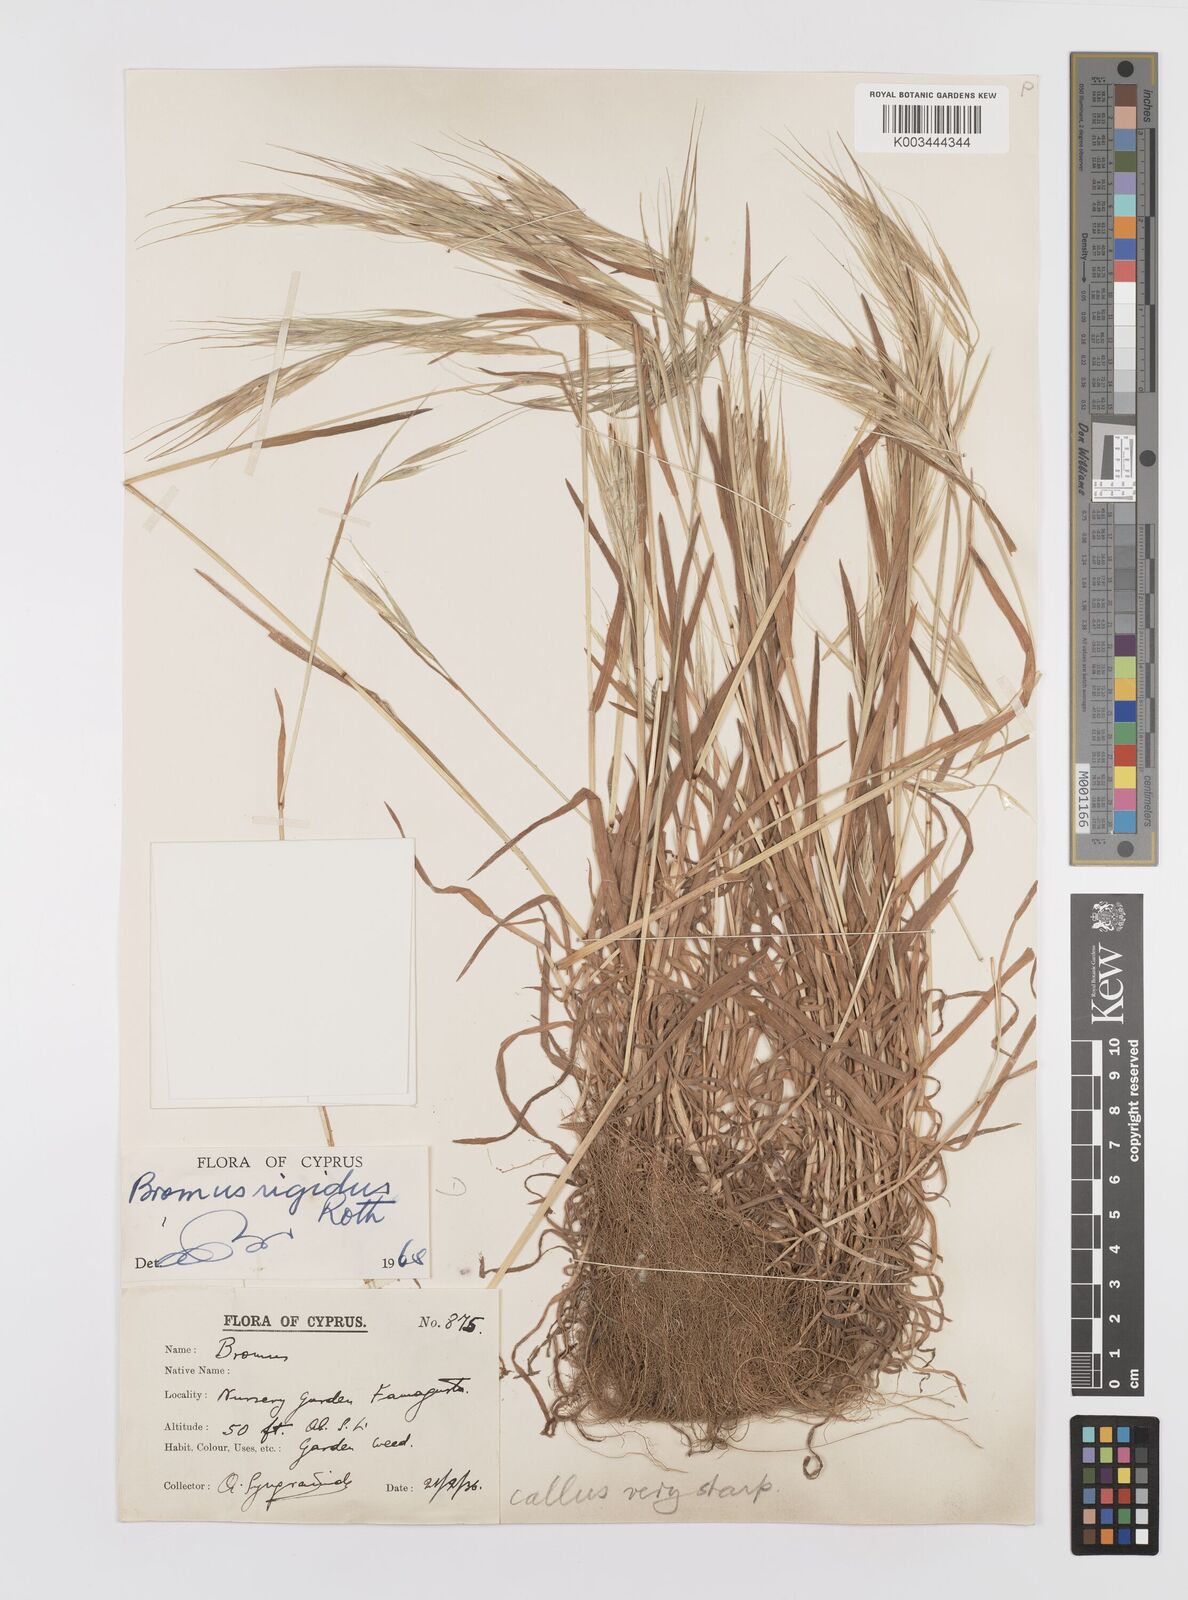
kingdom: Plantae
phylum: Tracheophyta
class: Liliopsida
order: Poales
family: Poaceae
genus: Bromus
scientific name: Bromus diandrus
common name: Ripgut brome
